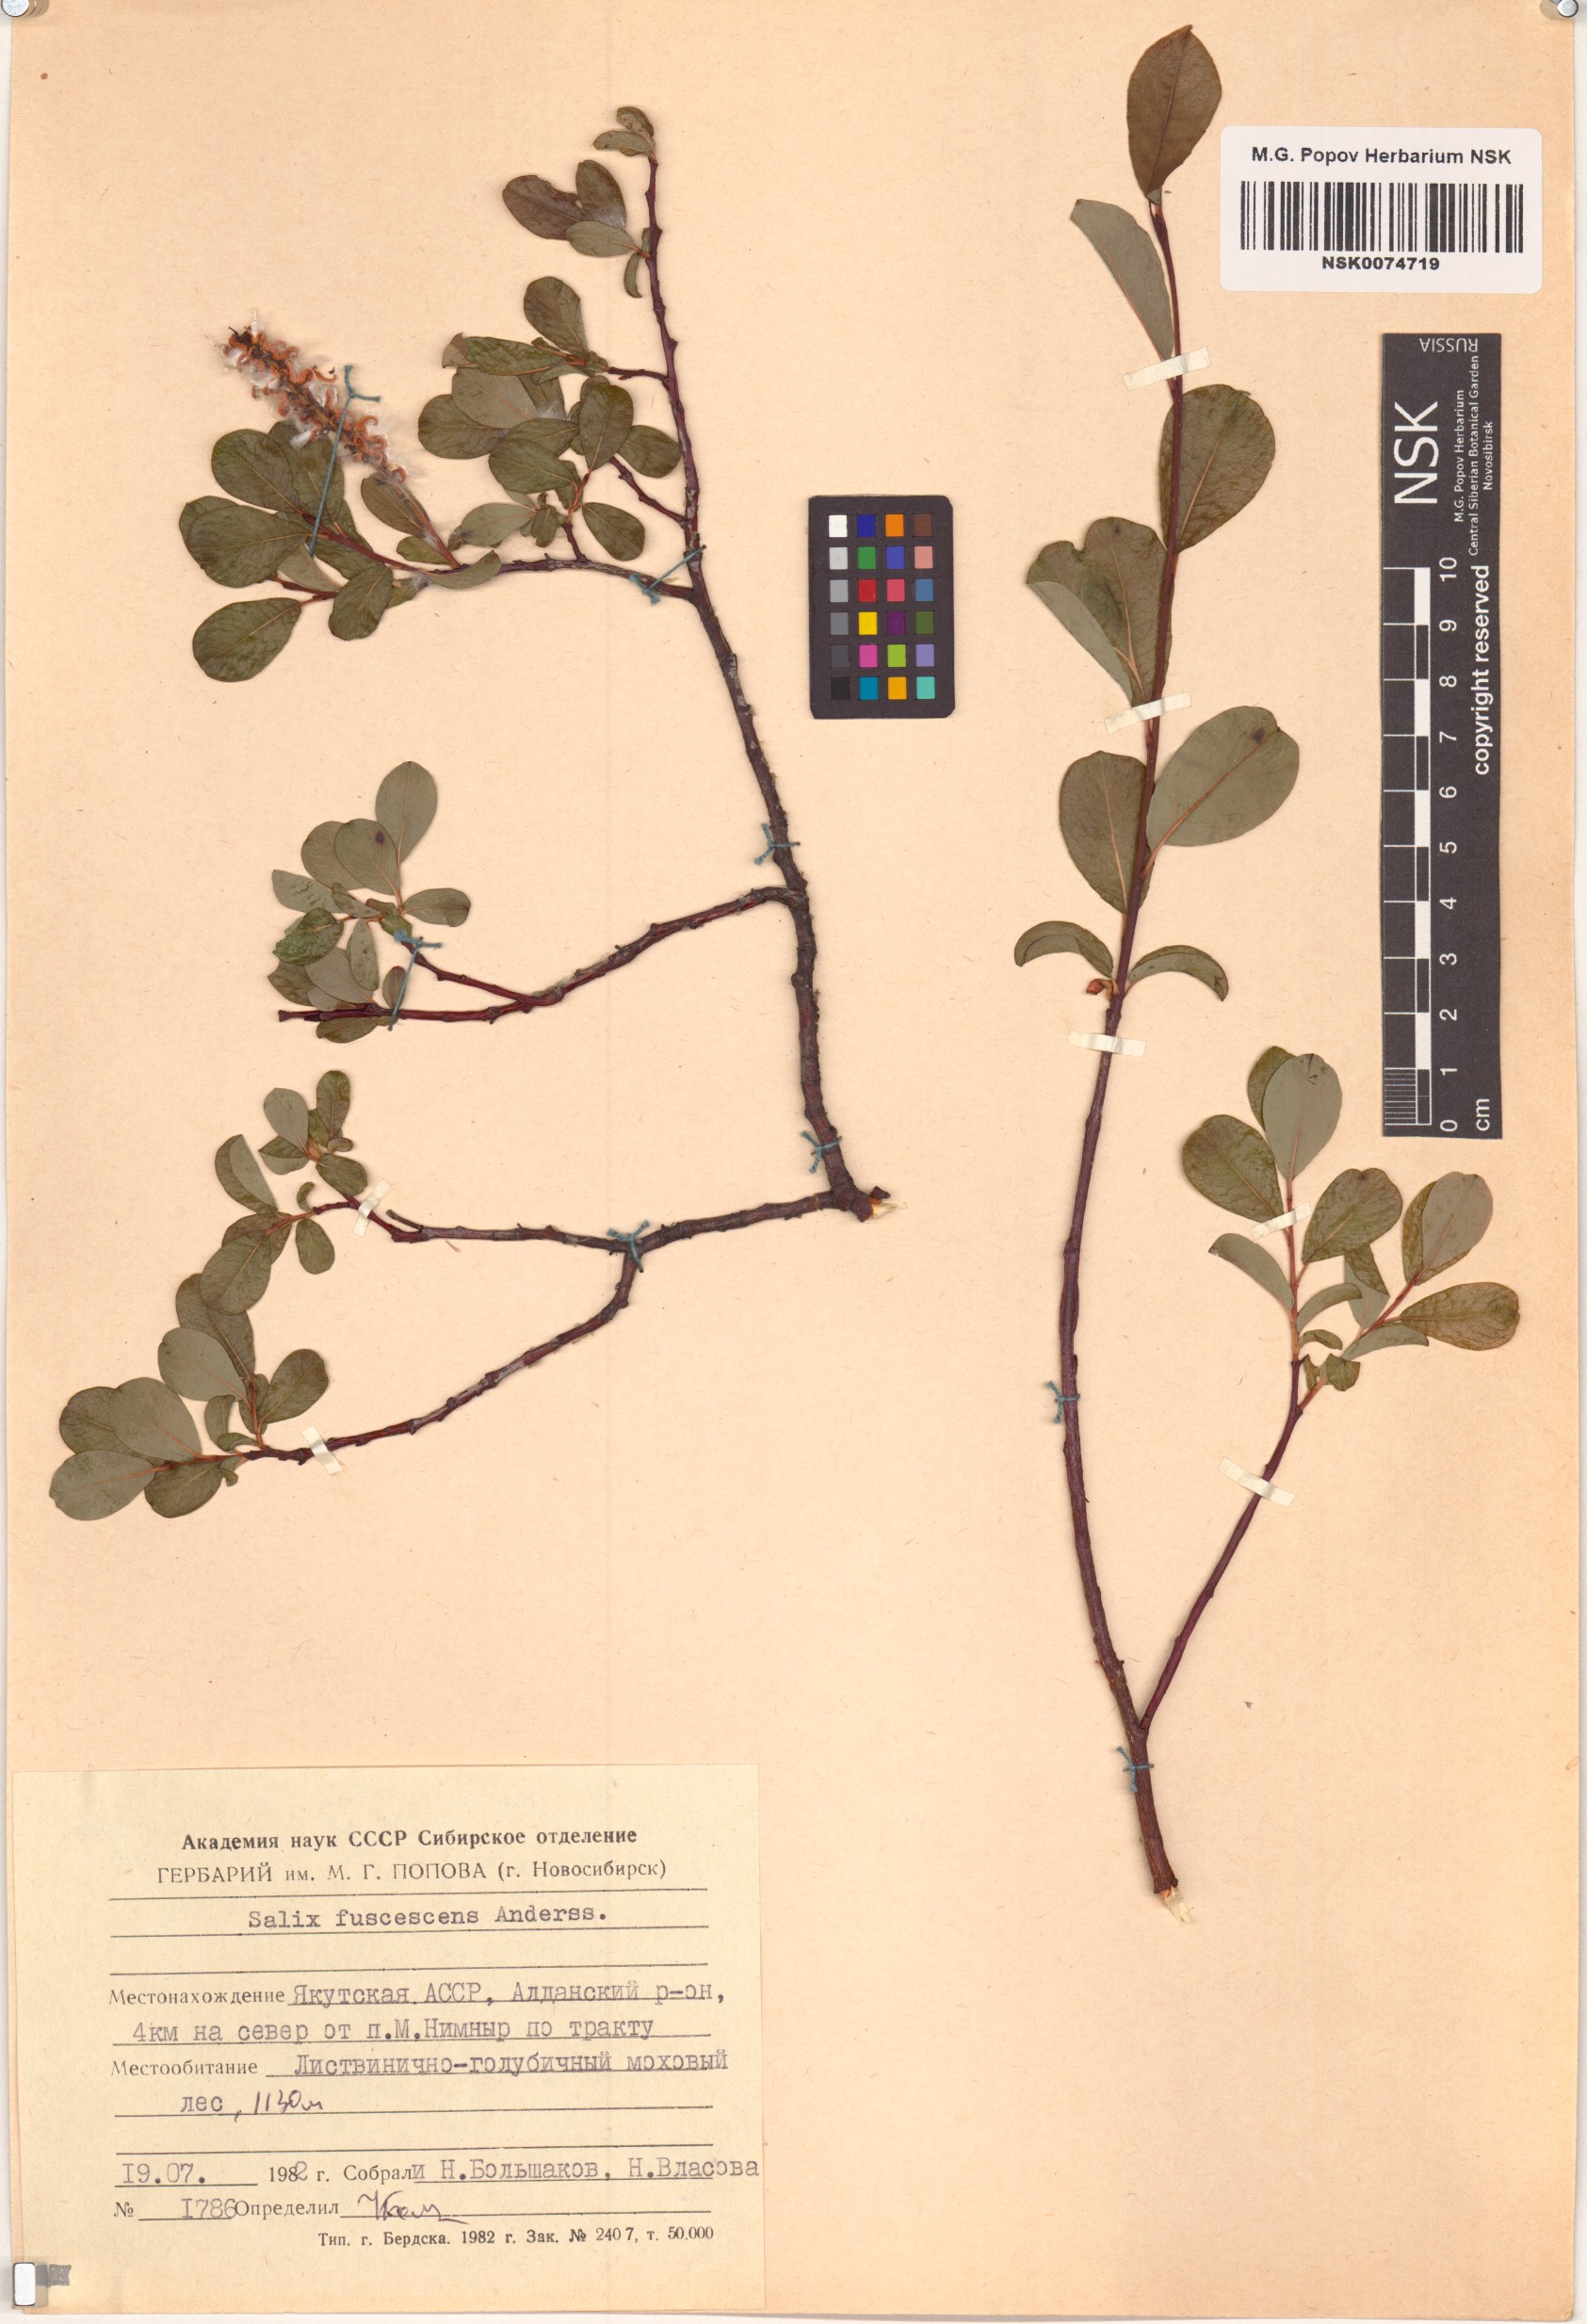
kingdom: Plantae
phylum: Tracheophyta
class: Magnoliopsida
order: Malpighiales
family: Salicaceae
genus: Salix
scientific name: Salix fuscescens
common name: Brownish willow
